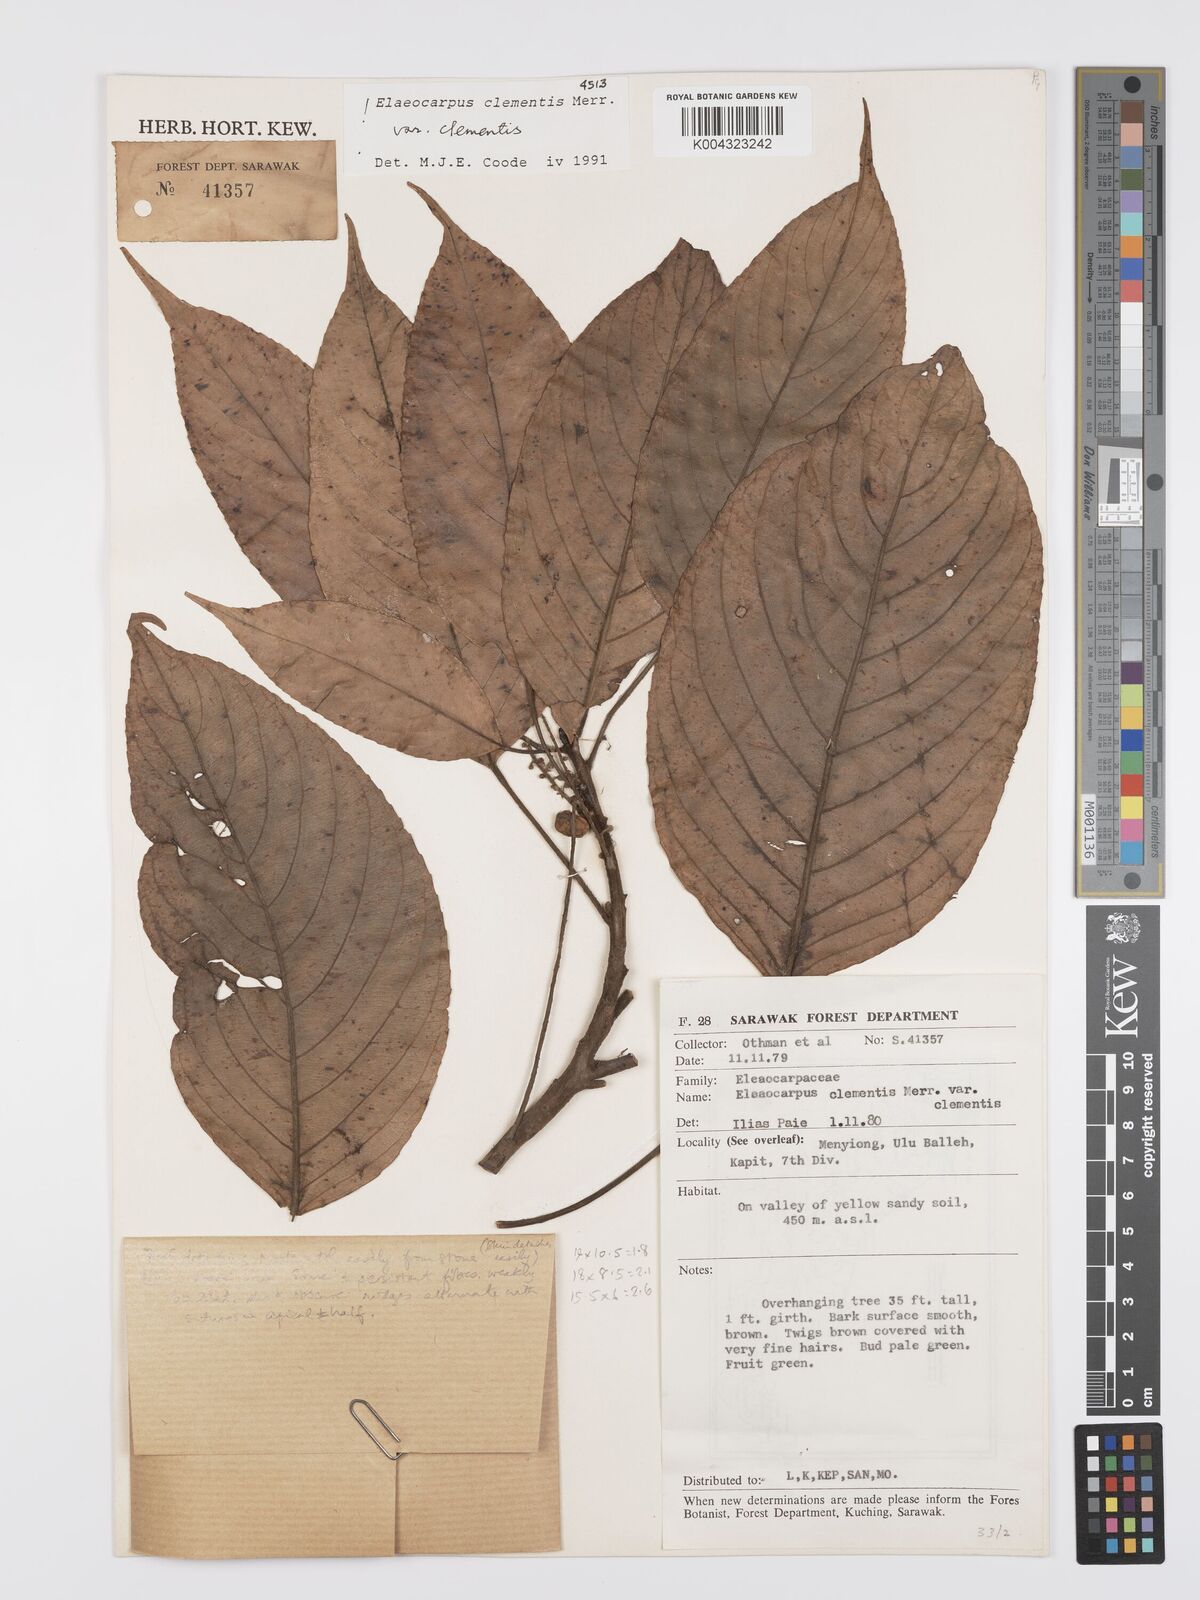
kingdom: Plantae
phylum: Tracheophyta
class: Magnoliopsida
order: Oxalidales
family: Elaeocarpaceae
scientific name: Elaeocarpaceae
